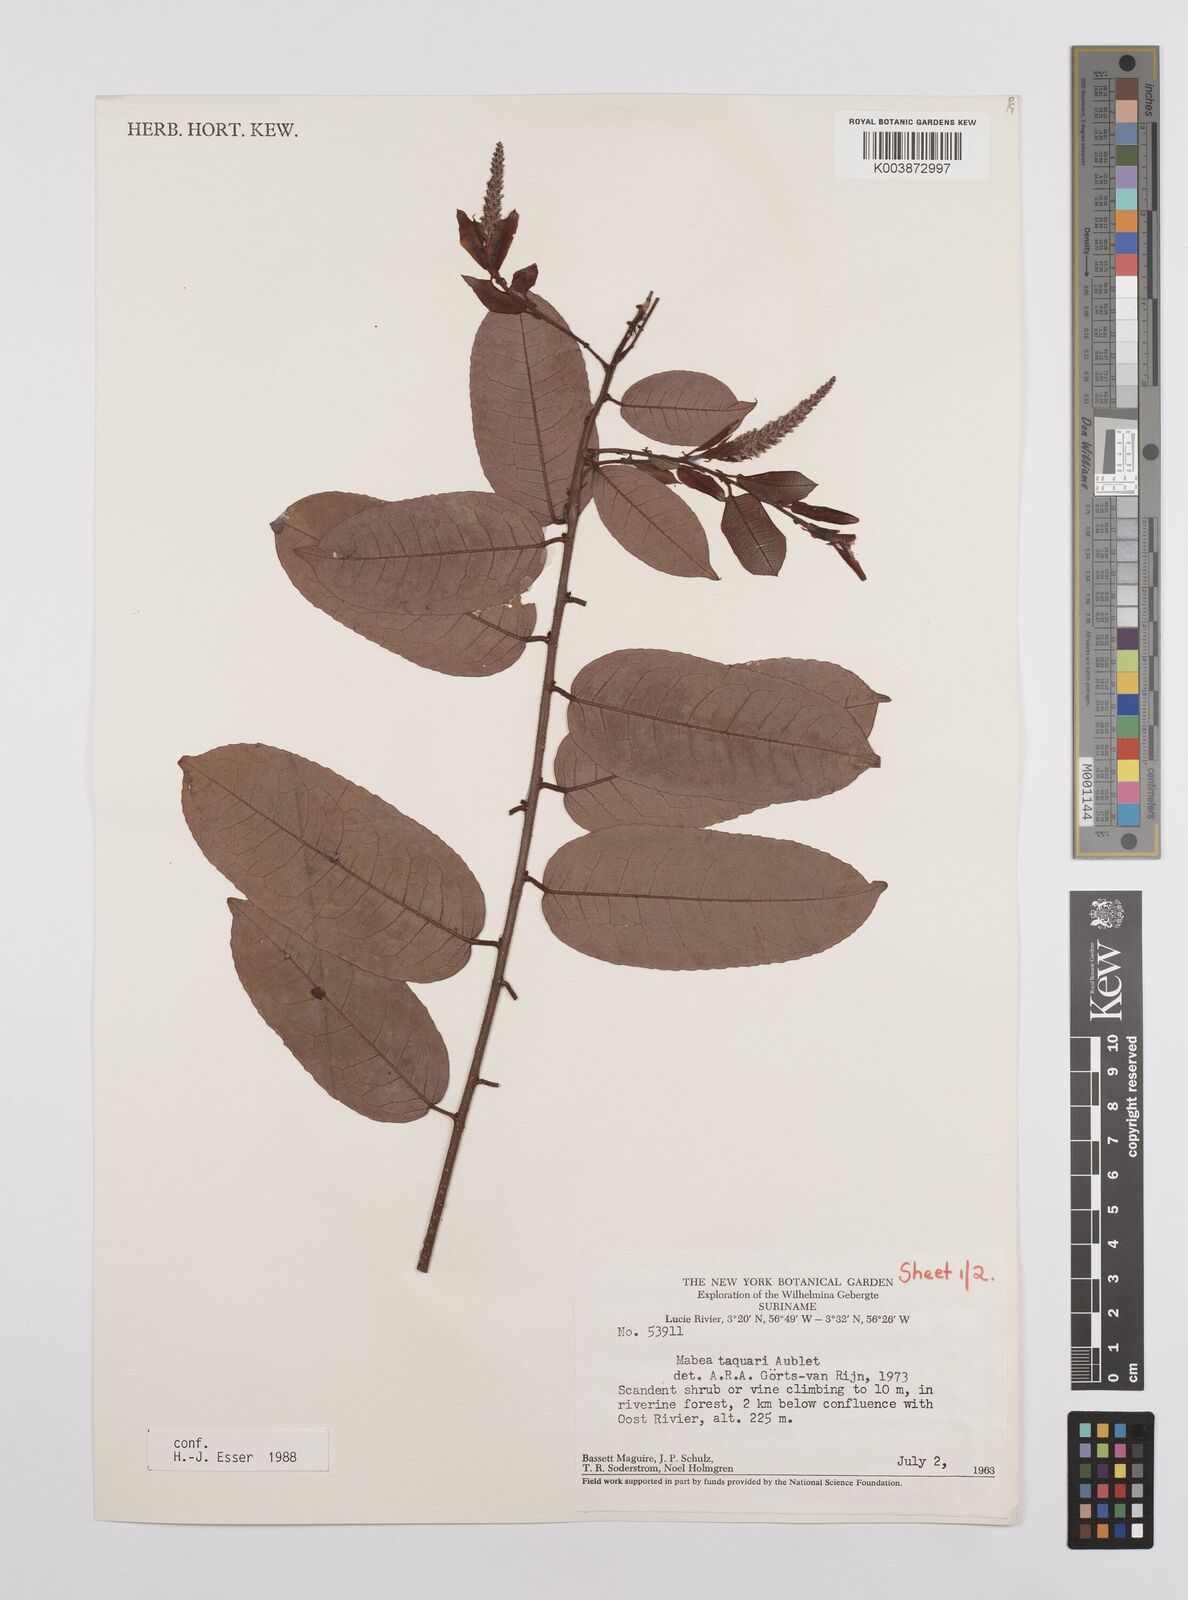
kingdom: Plantae
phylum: Tracheophyta
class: Magnoliopsida
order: Malpighiales
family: Euphorbiaceae
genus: Mabea
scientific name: Mabea taquari
